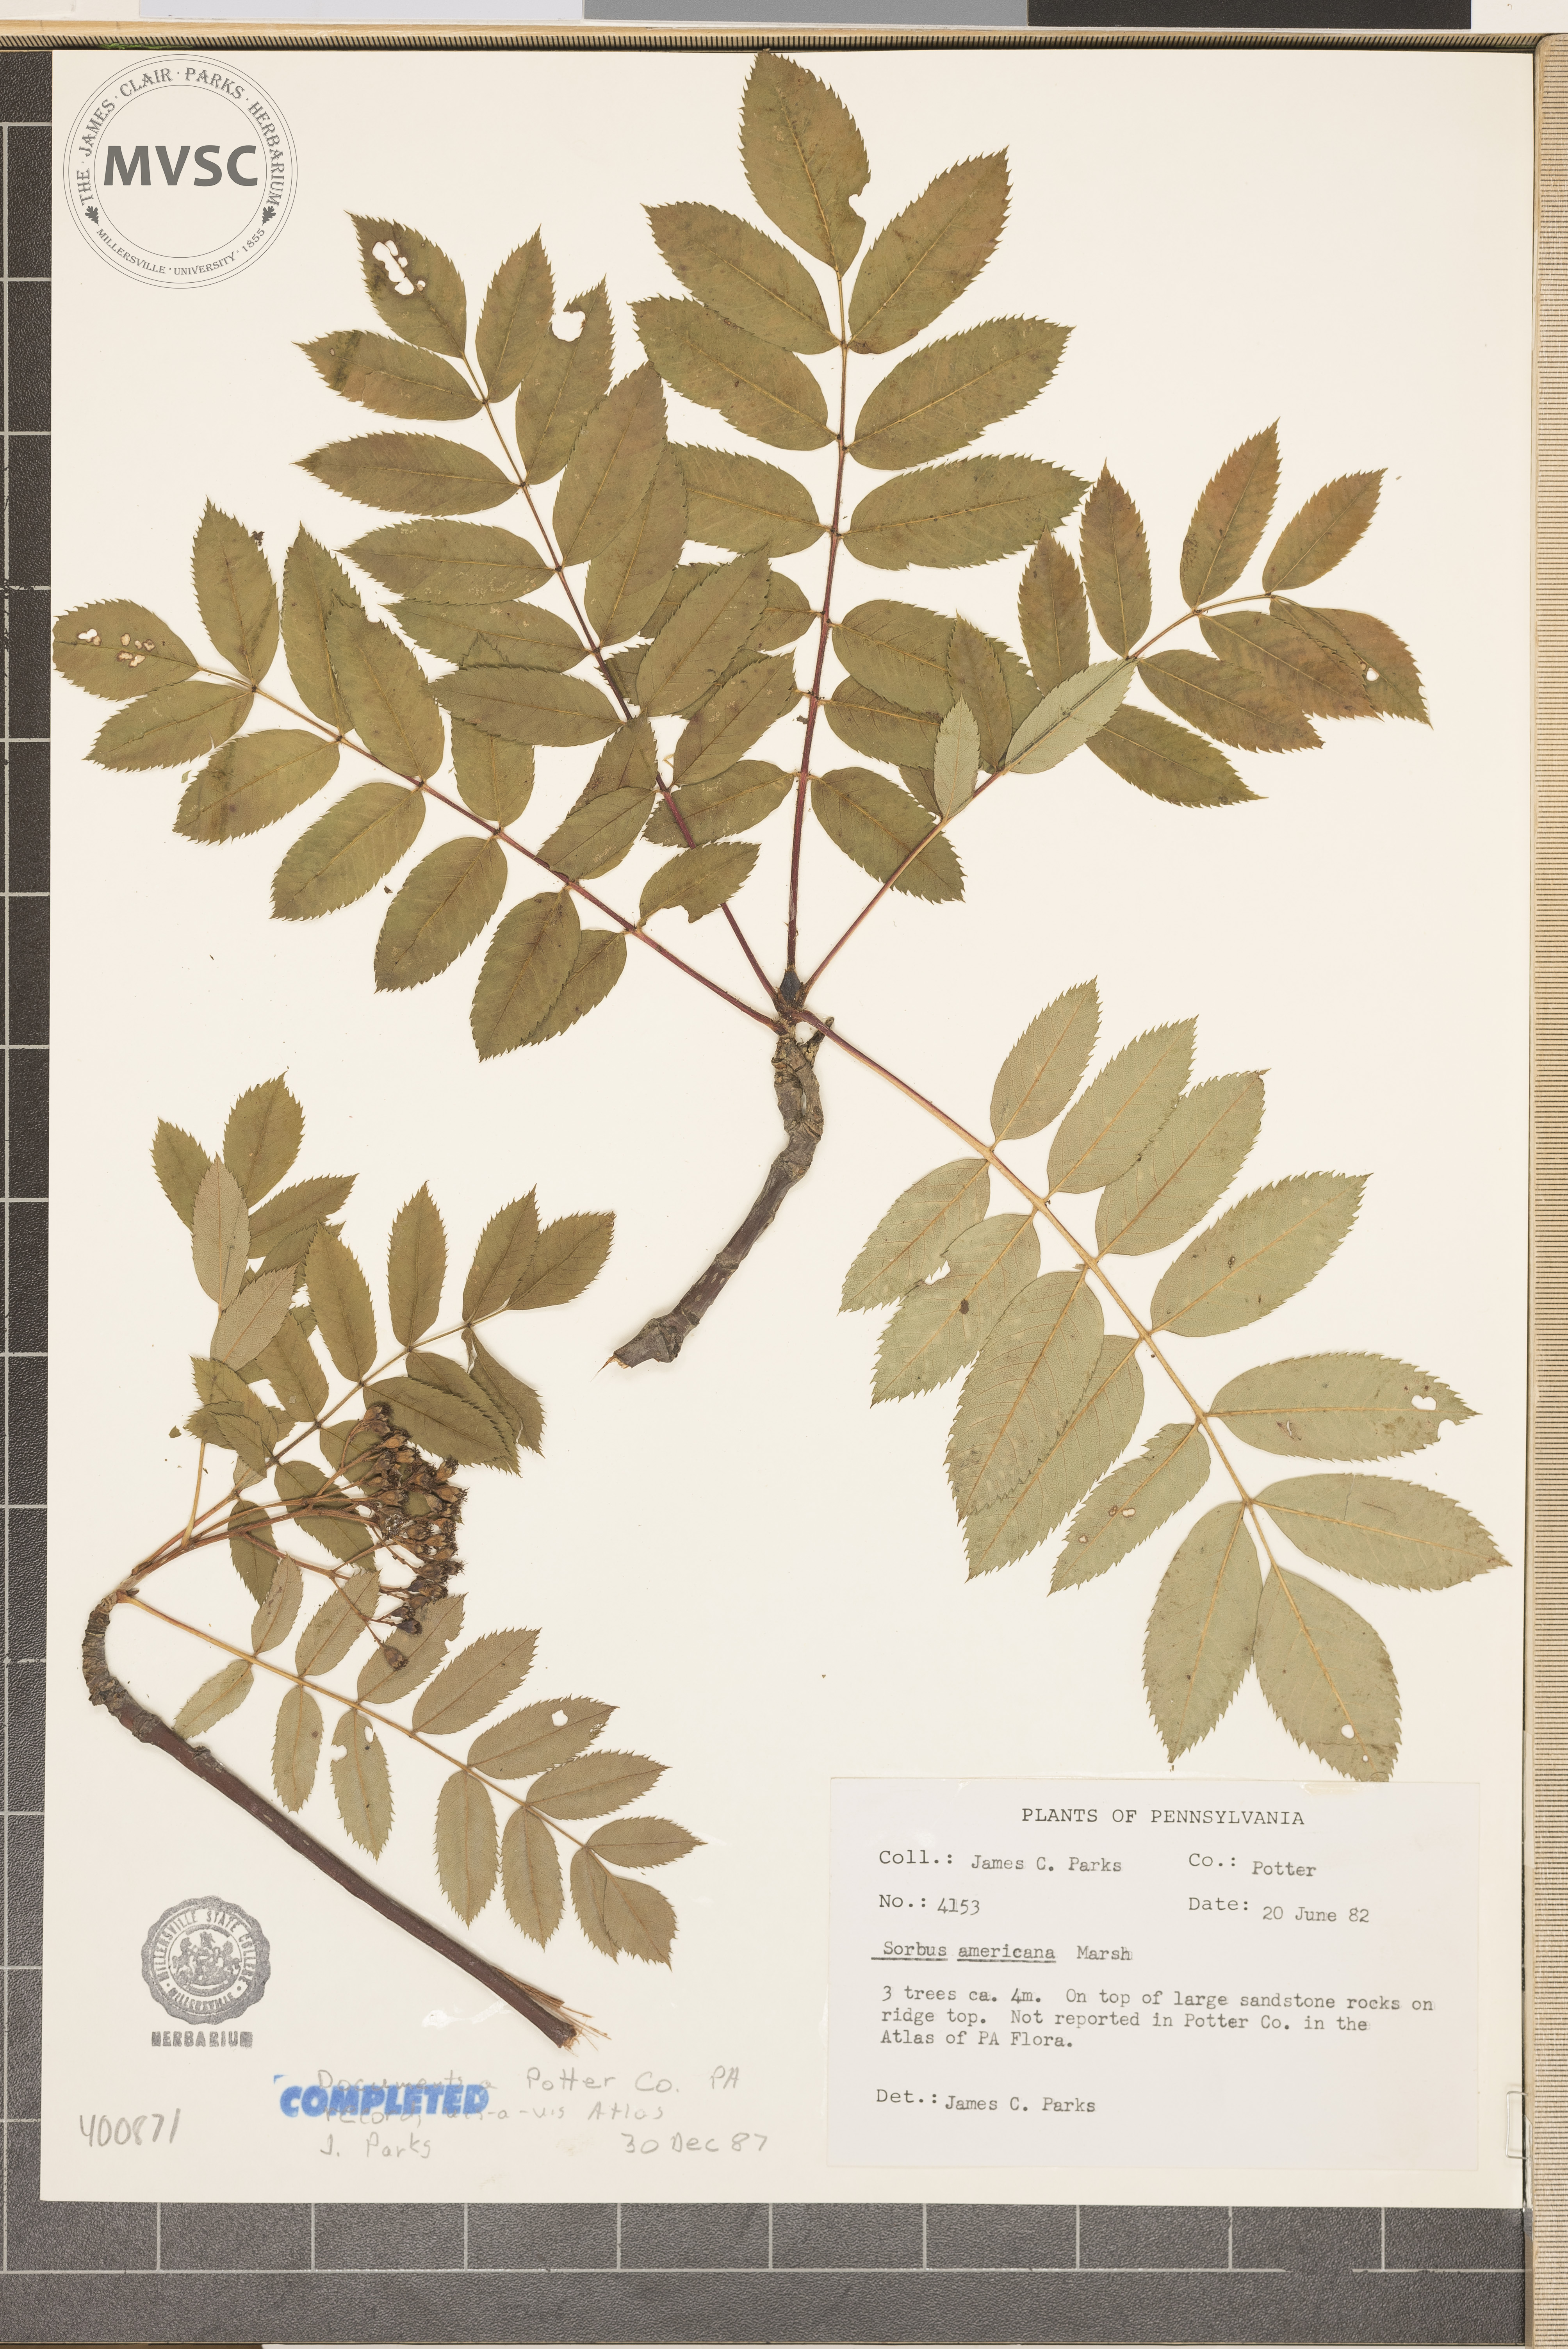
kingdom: Plantae
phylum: Tracheophyta
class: Magnoliopsida
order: Rosales
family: Rosaceae
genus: Sorbus
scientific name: Sorbus americana
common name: mountain-ash
